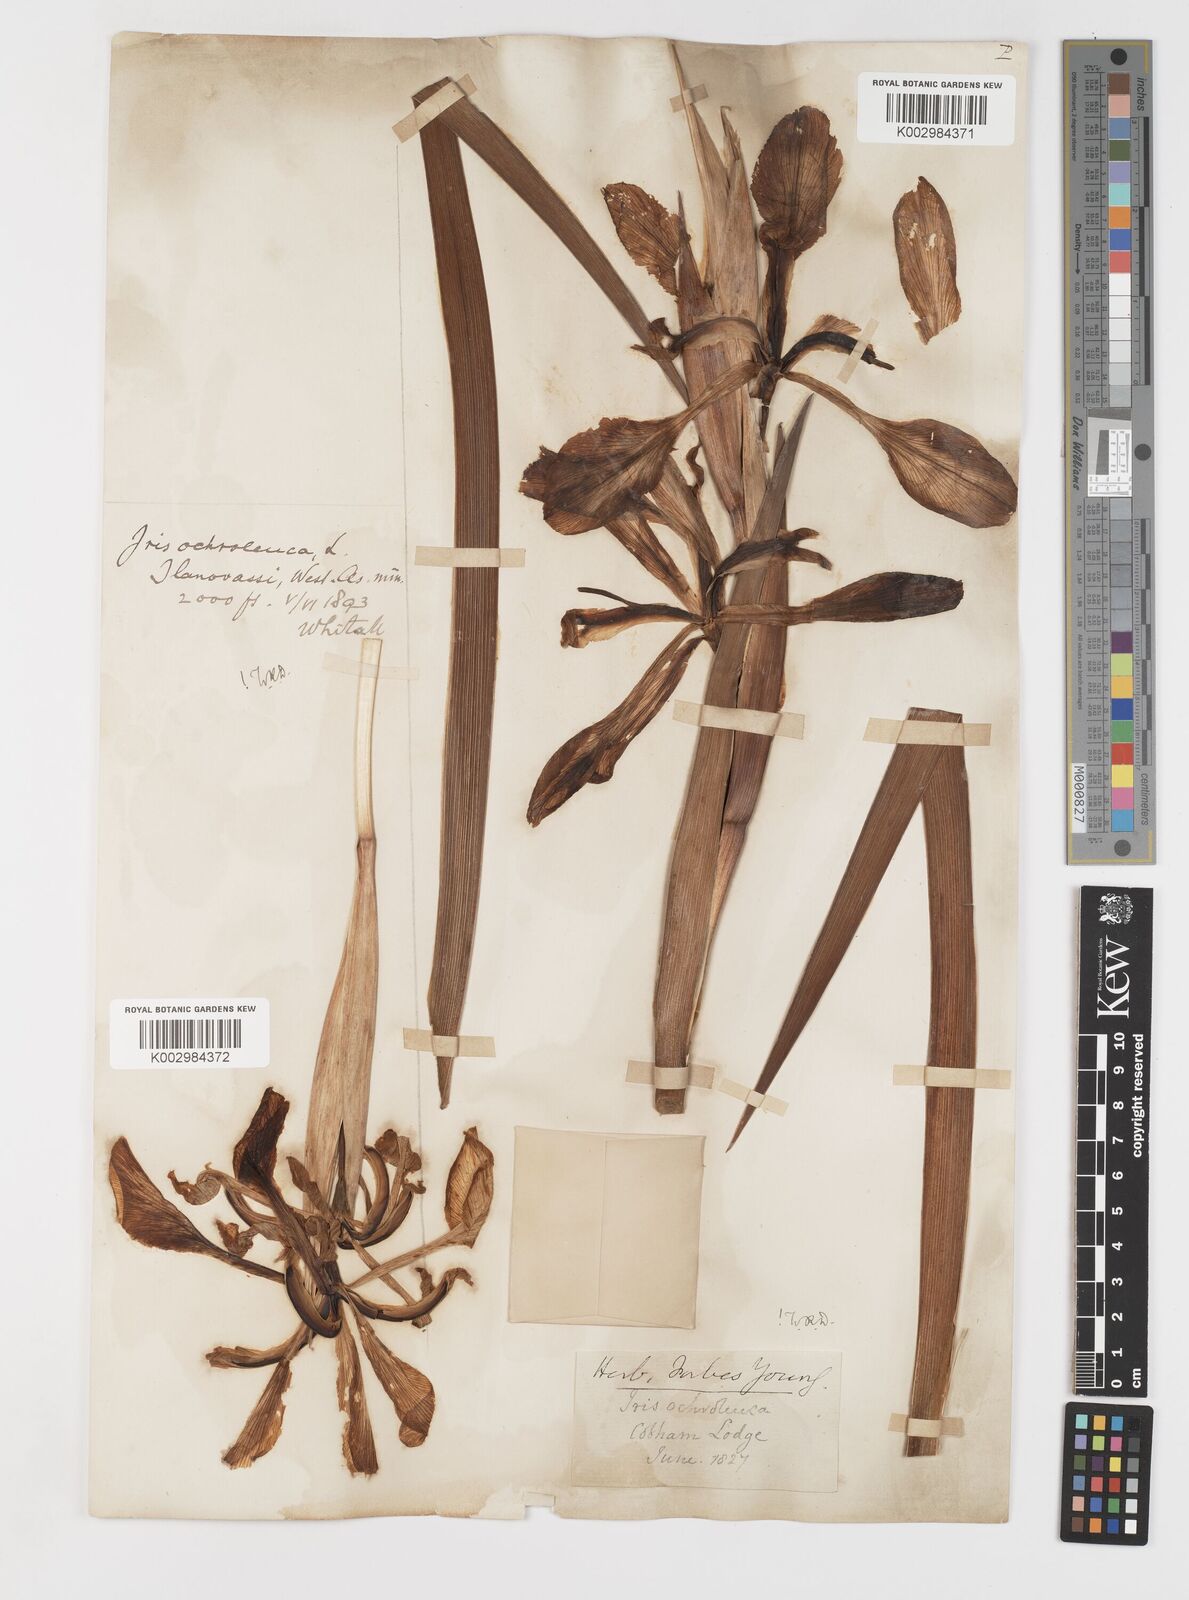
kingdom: Plantae
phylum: Tracheophyta
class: Liliopsida
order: Asparagales
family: Iridaceae
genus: Iris
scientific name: Iris orientalis
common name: Turkish iris
